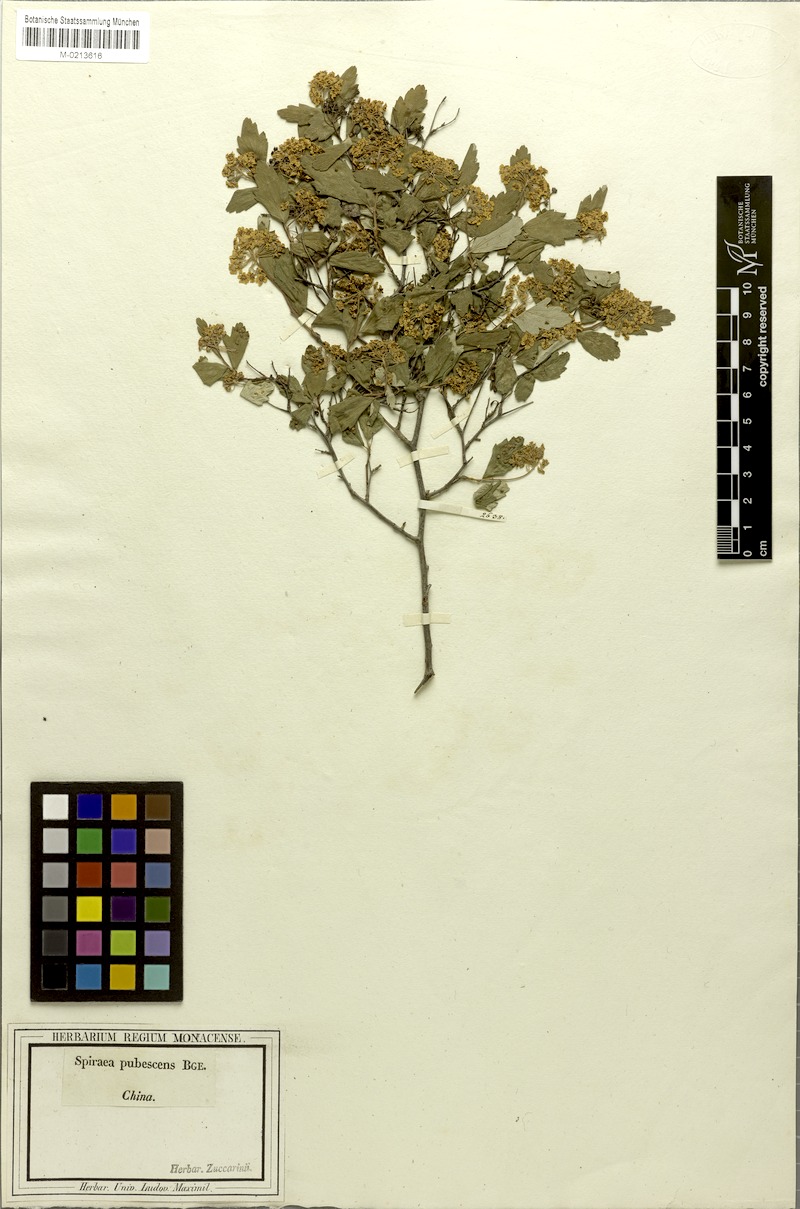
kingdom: Plantae
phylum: Tracheophyta
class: Magnoliopsida
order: Rosales
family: Rosaceae
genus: Spiraea
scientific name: Spiraea ouensanensis
